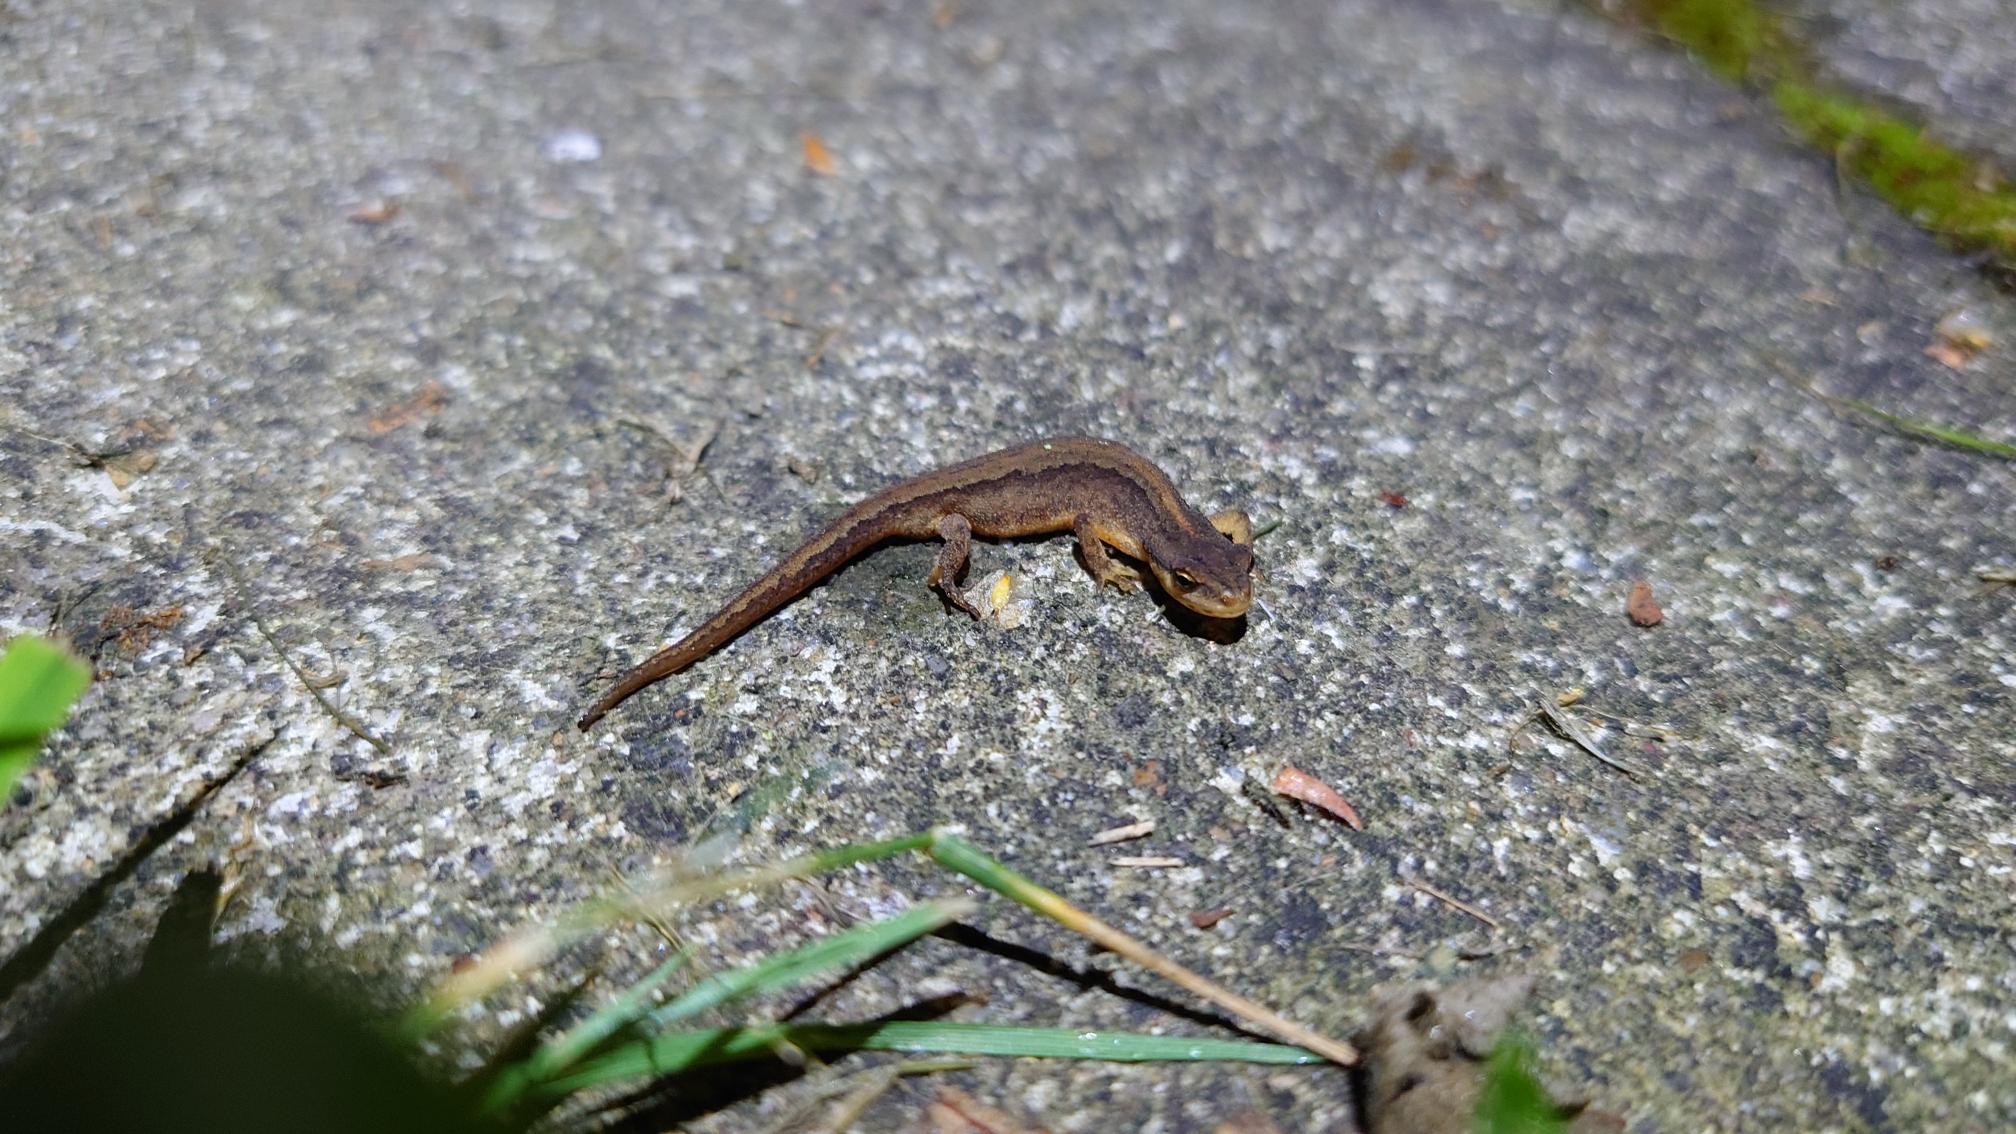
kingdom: Animalia
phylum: Chordata
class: Amphibia
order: Caudata
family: Salamandridae
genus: Lissotriton
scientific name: Lissotriton vulgaris
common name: Lille vandsalamander
